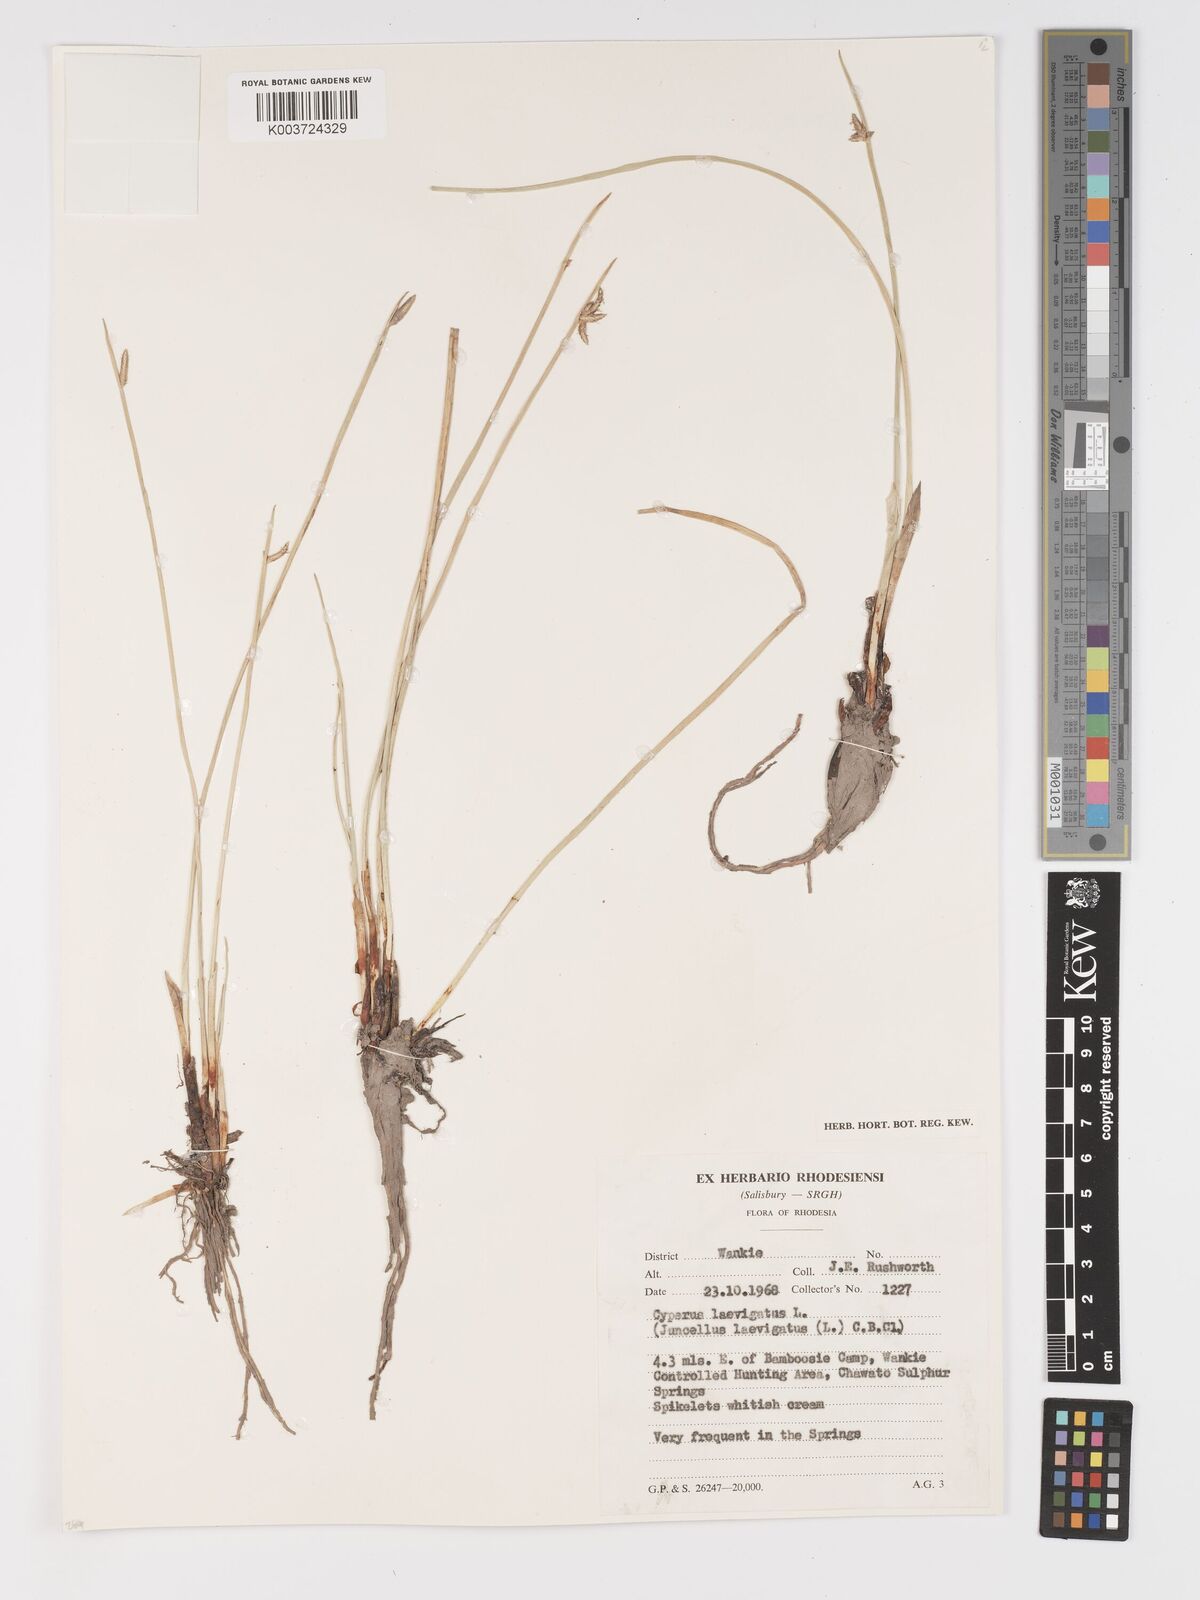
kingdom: Plantae
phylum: Tracheophyta
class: Liliopsida
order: Poales
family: Cyperaceae
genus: Cyperus
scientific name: Cyperus laevigatus
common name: Smooth flat sedge
